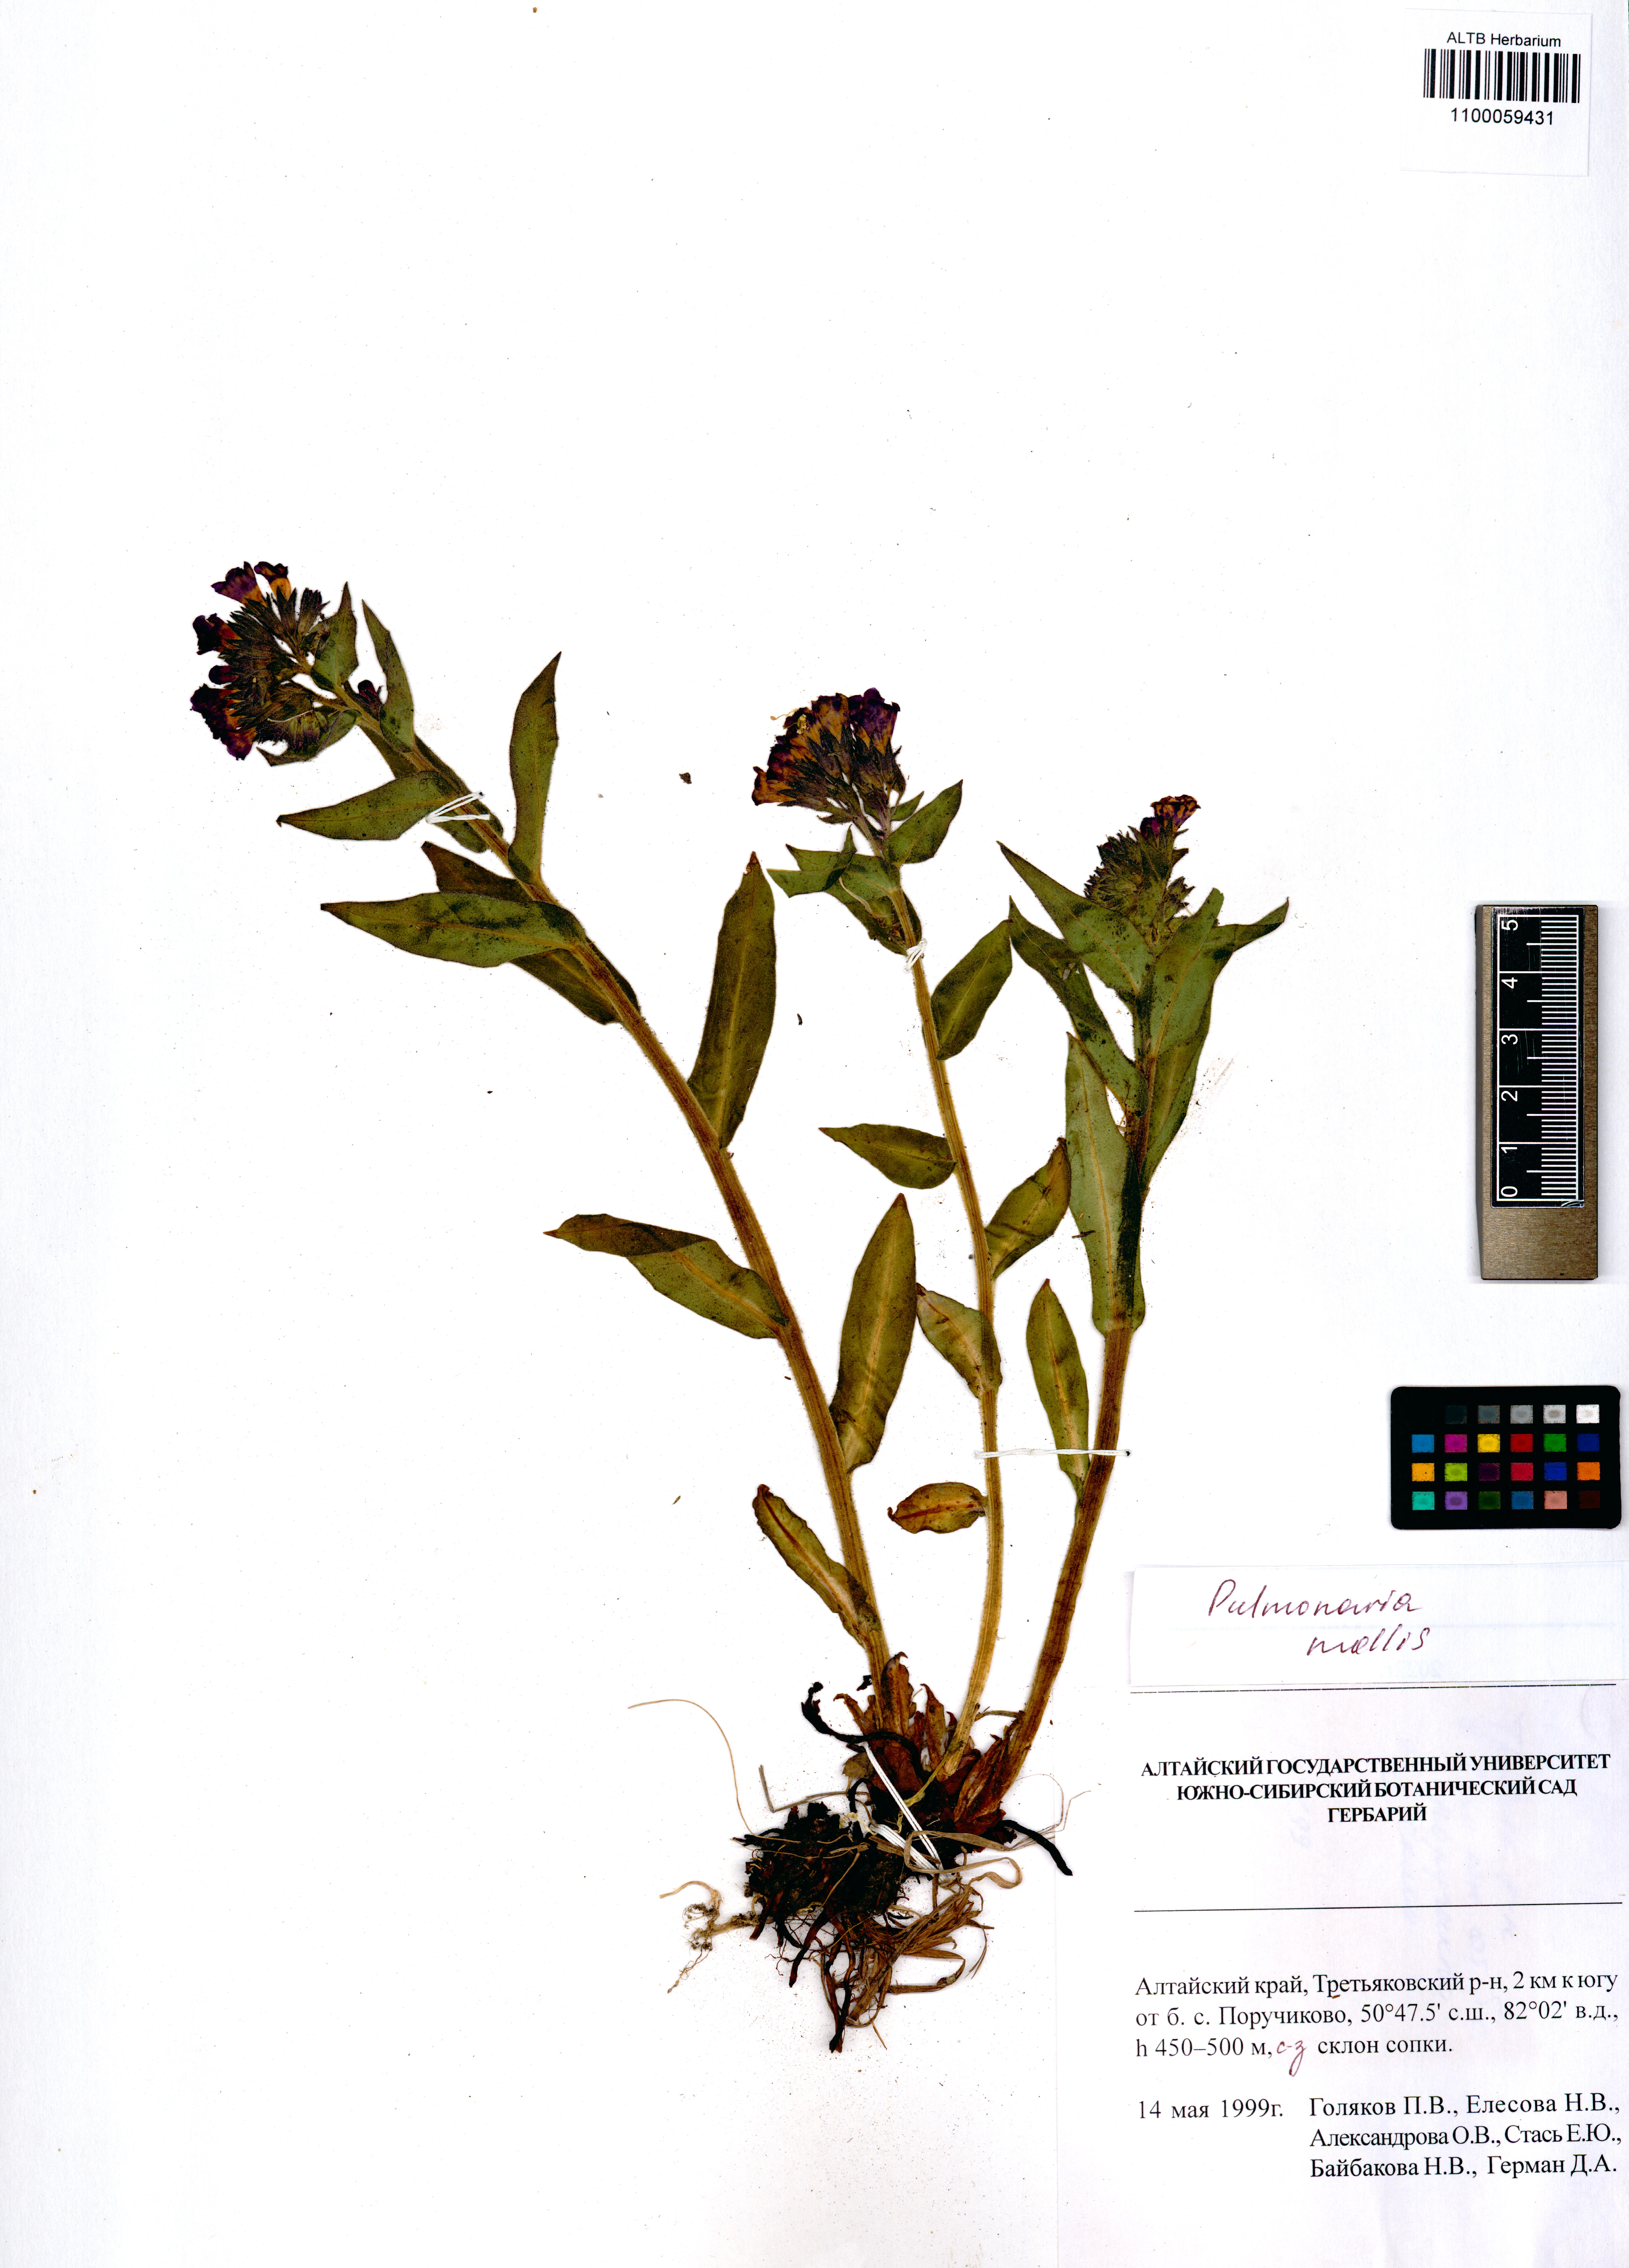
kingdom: Plantae
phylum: Tracheophyta
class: Magnoliopsida
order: Boraginales
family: Boraginaceae
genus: Pulmonaria
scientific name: Pulmonaria mollis
